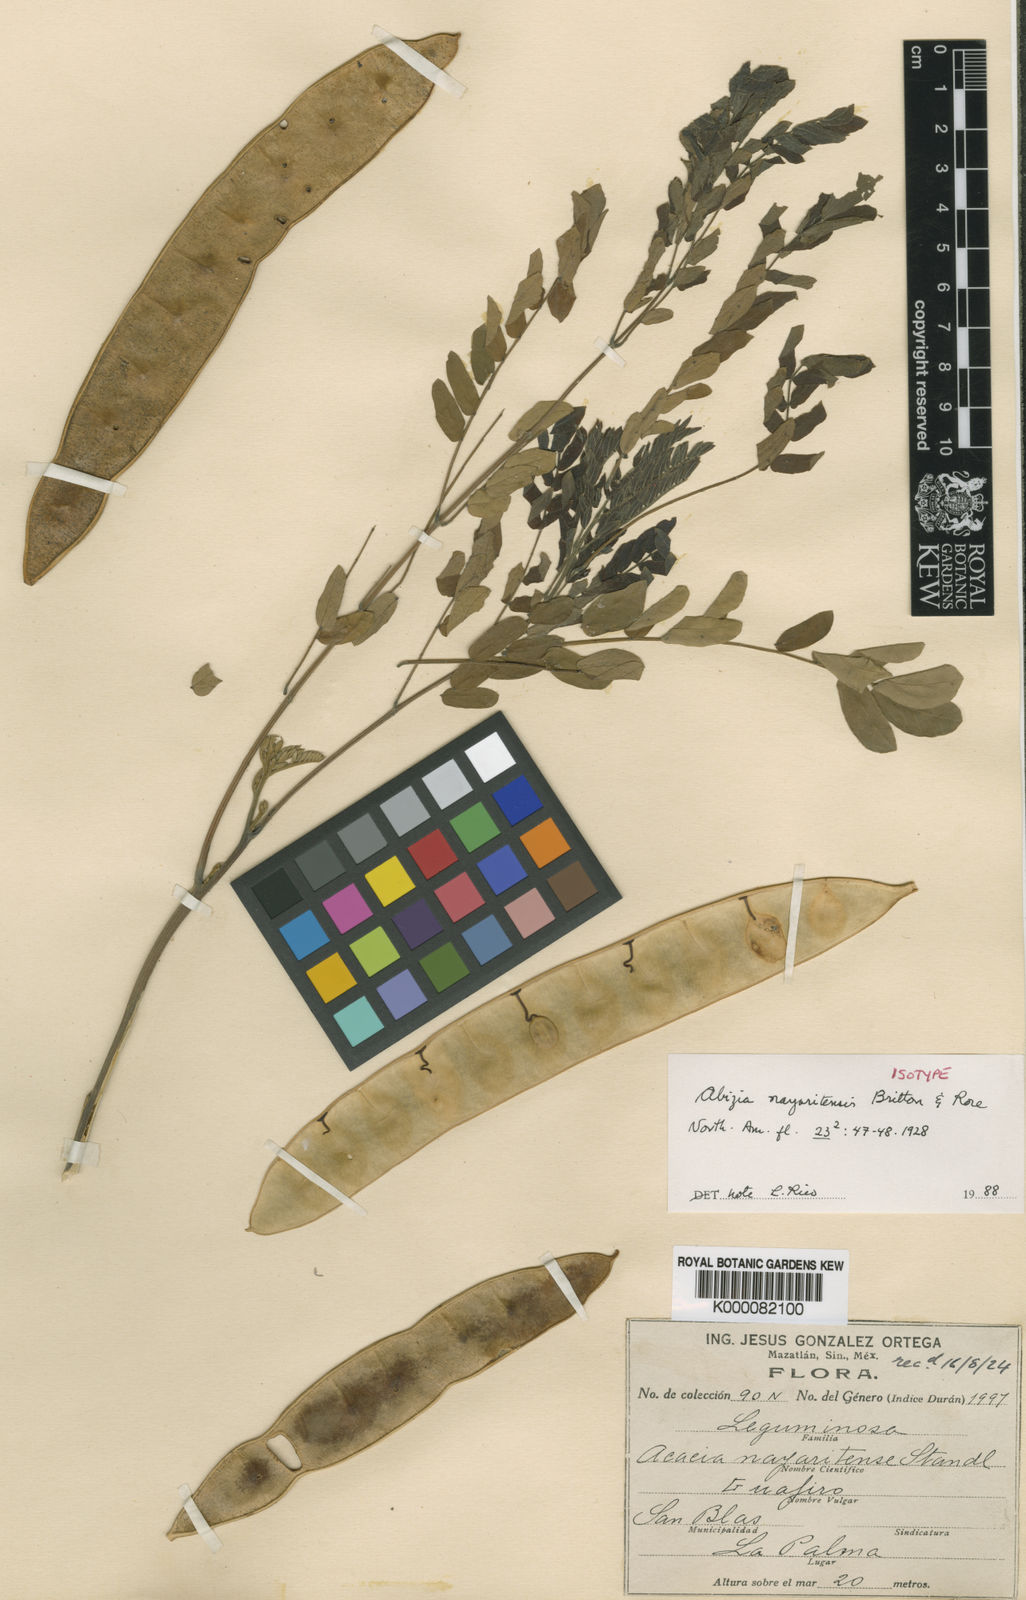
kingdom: Plantae
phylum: Tracheophyta
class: Magnoliopsida
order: Fabales
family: Fabaceae
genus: Albizia
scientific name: Albizia
